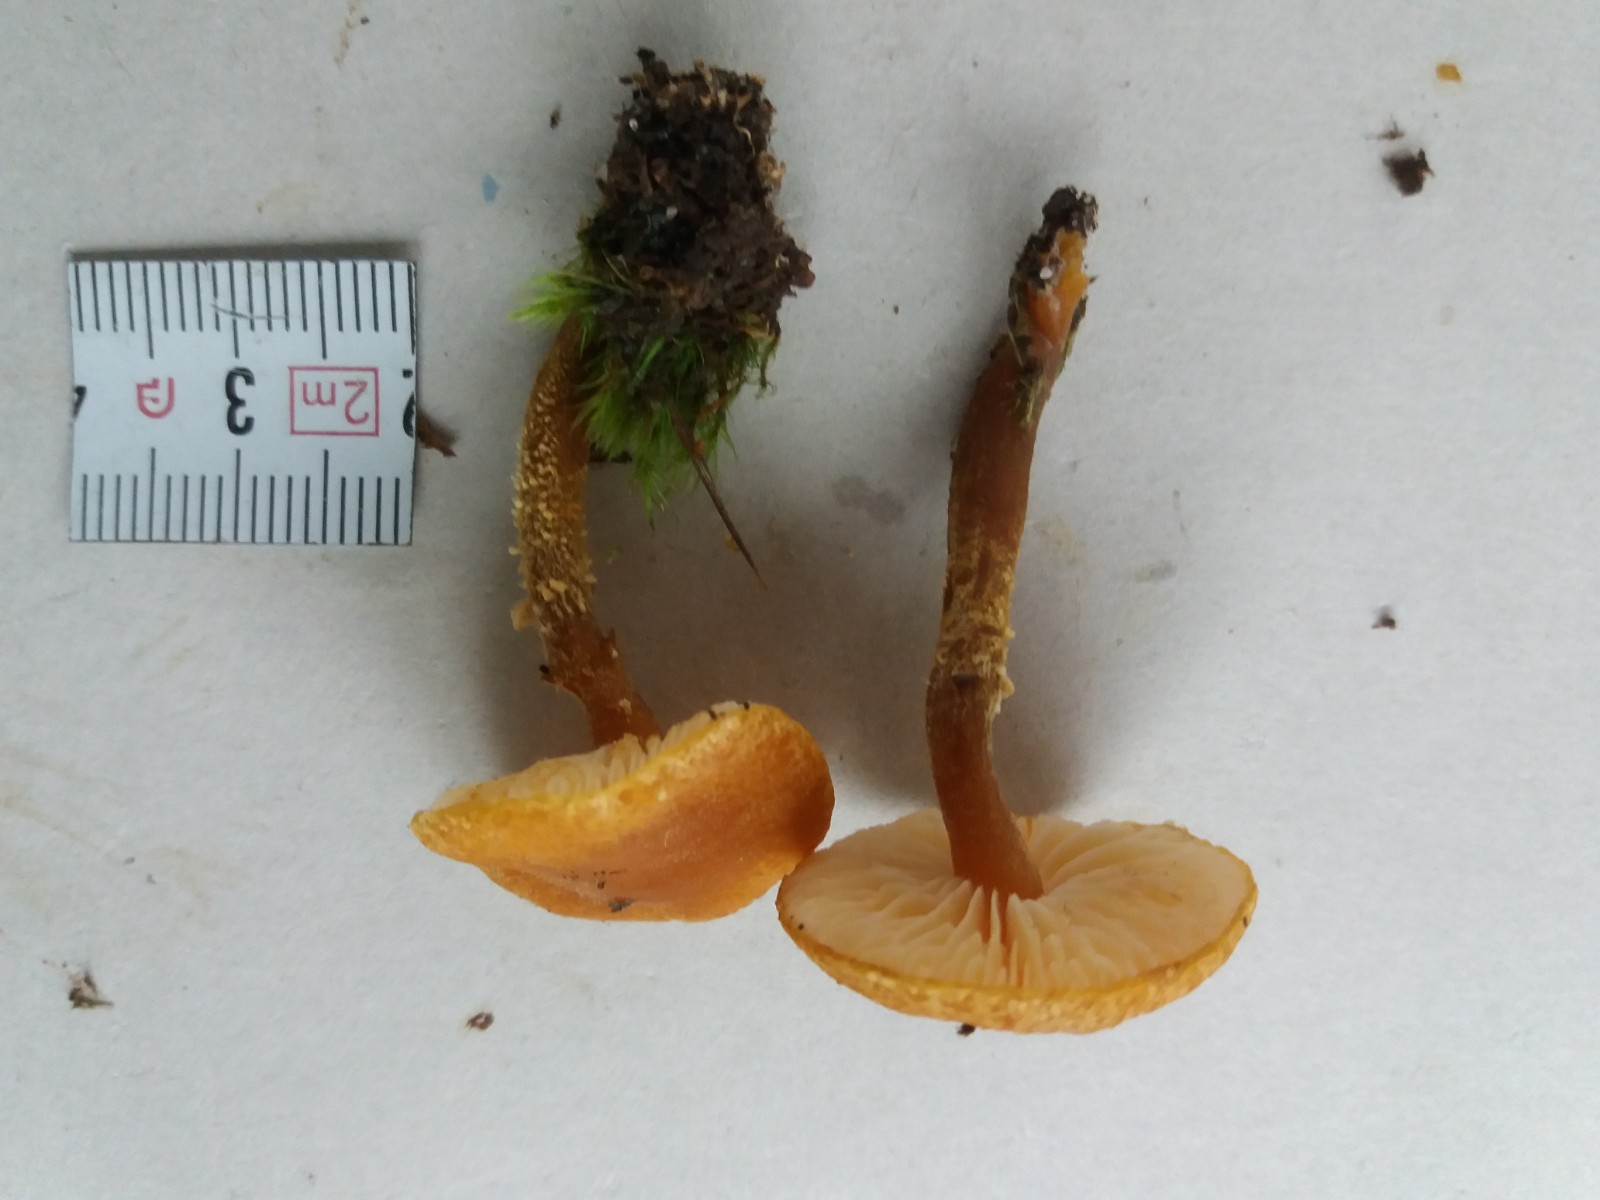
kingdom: Fungi
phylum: Basidiomycota
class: Agaricomycetes
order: Agaricales
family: Tricholomataceae
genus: Cystoderma
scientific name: Cystoderma amianthinum
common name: okkergul grynhat
